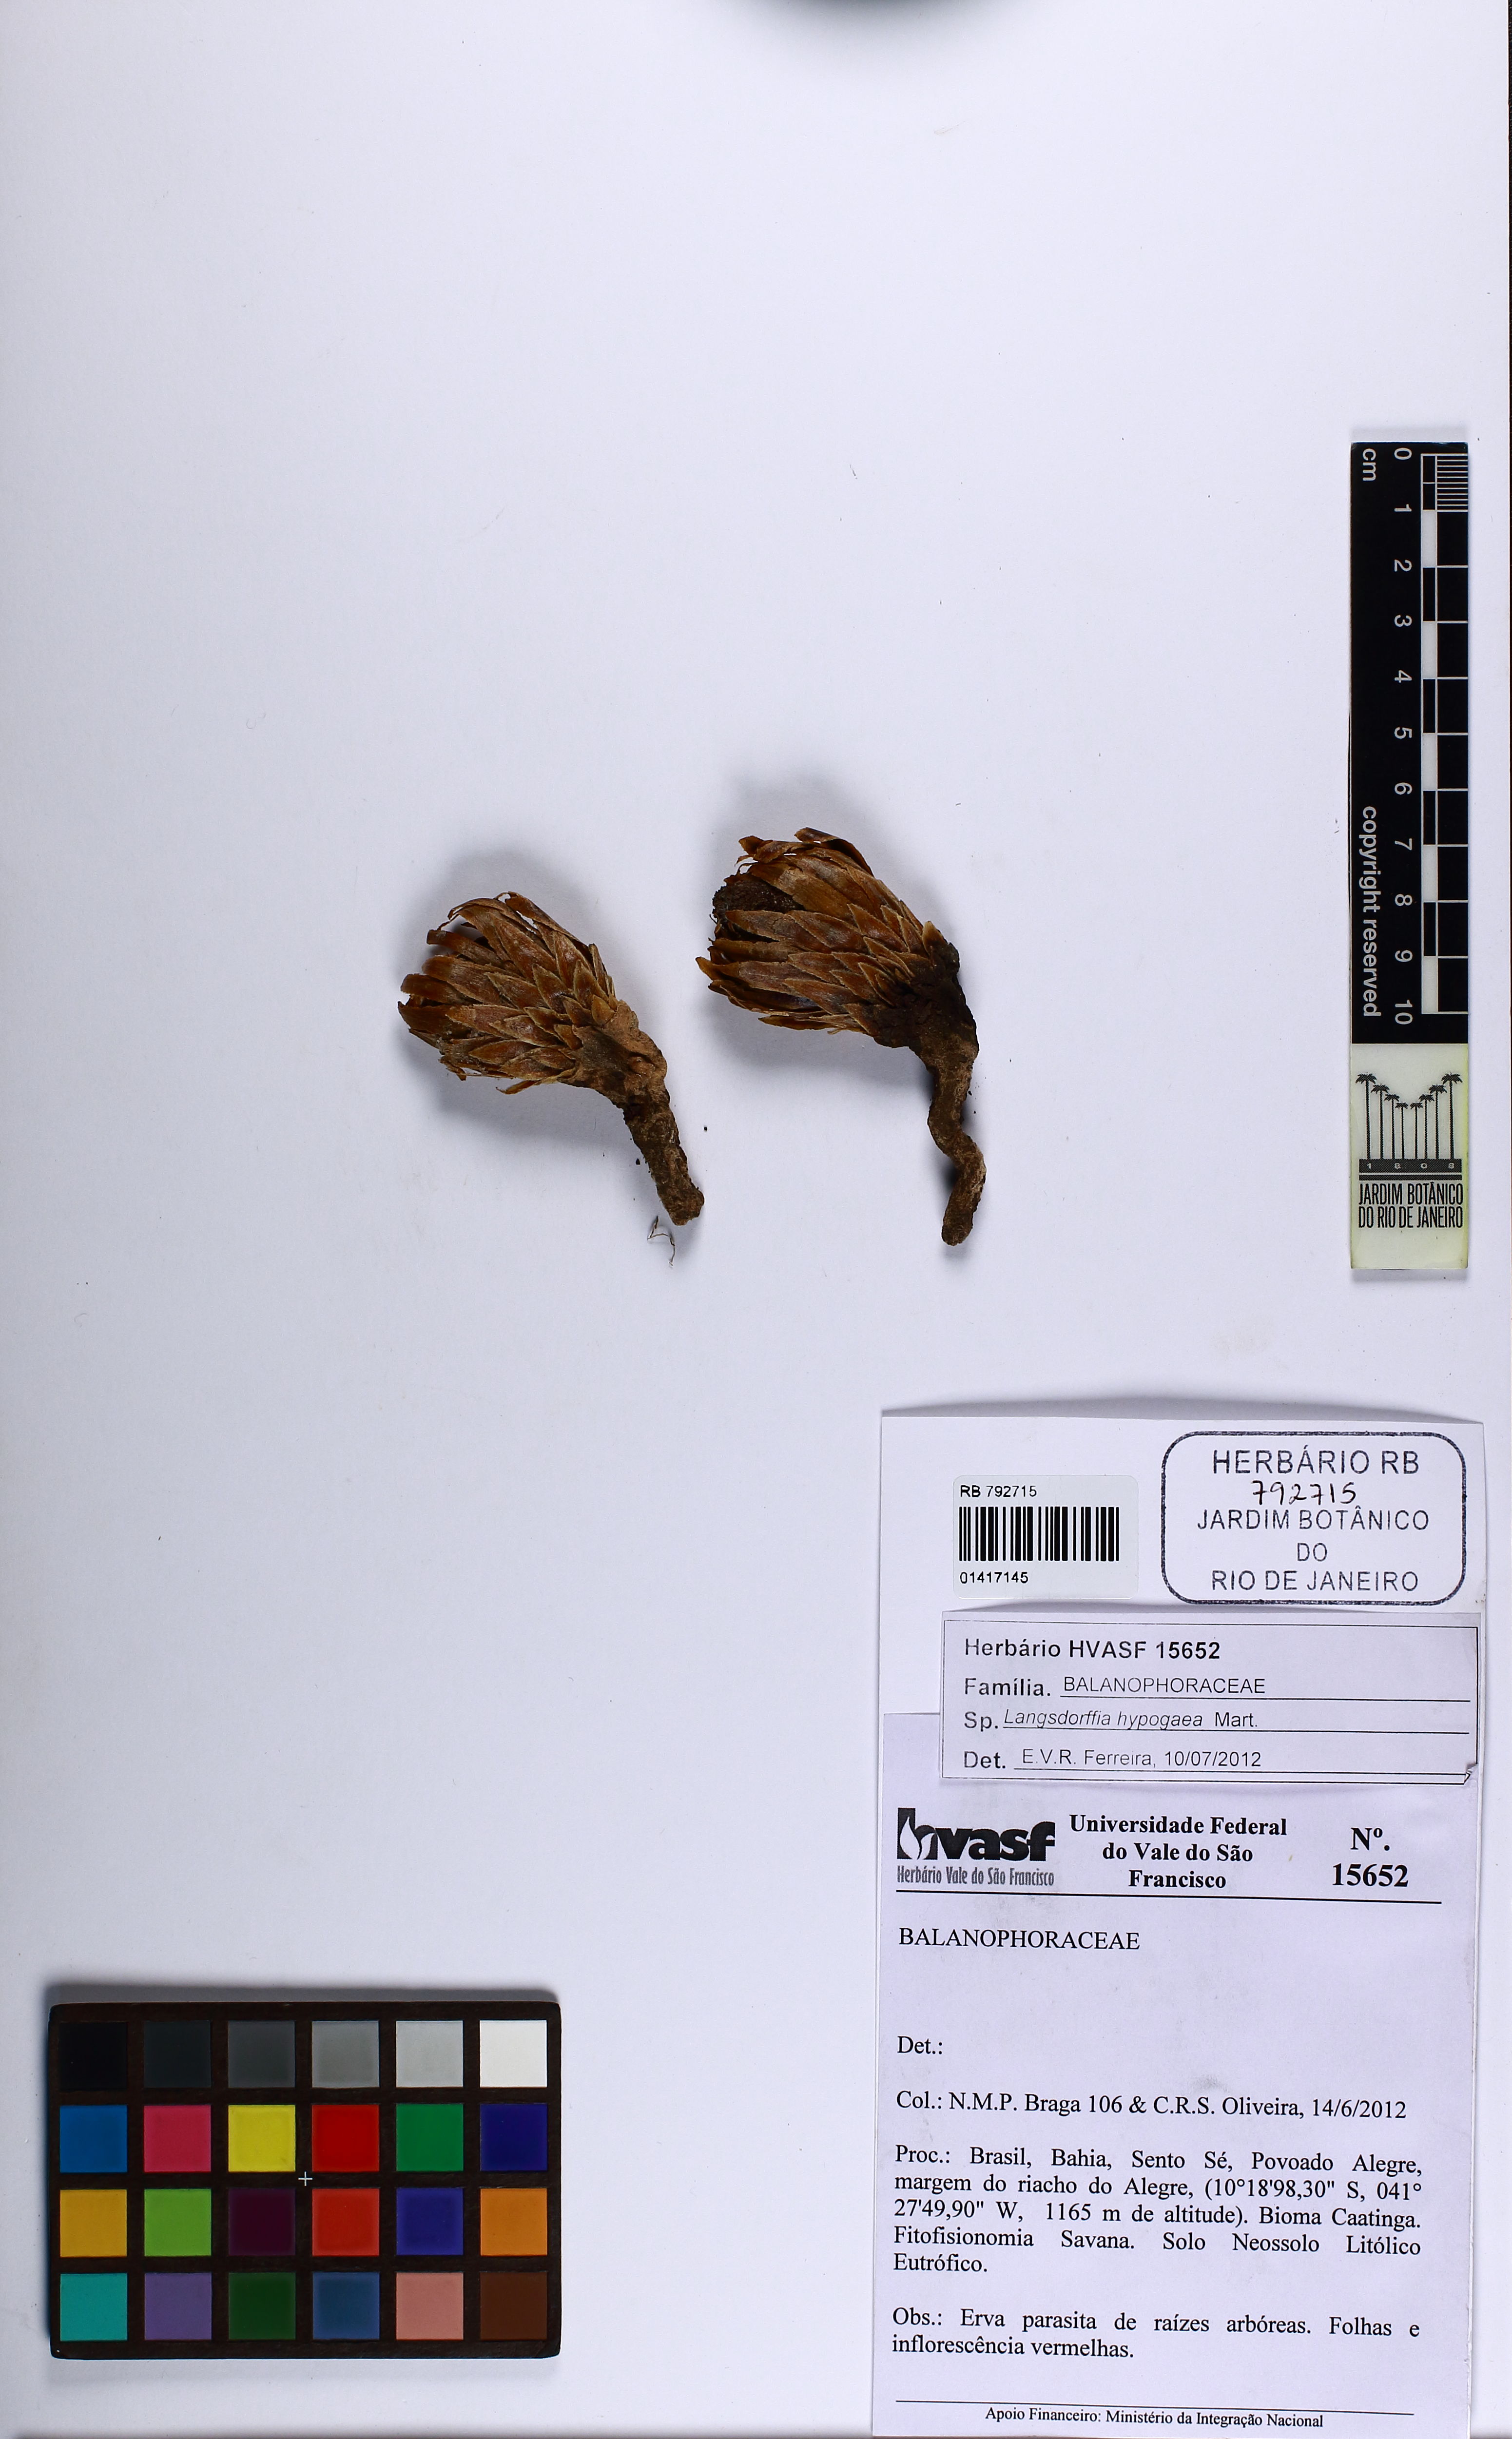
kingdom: Plantae
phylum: Tracheophyta
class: Magnoliopsida
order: Santalales
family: Balanophoraceae
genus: Langsdorffia
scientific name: Langsdorffia hypogaea
